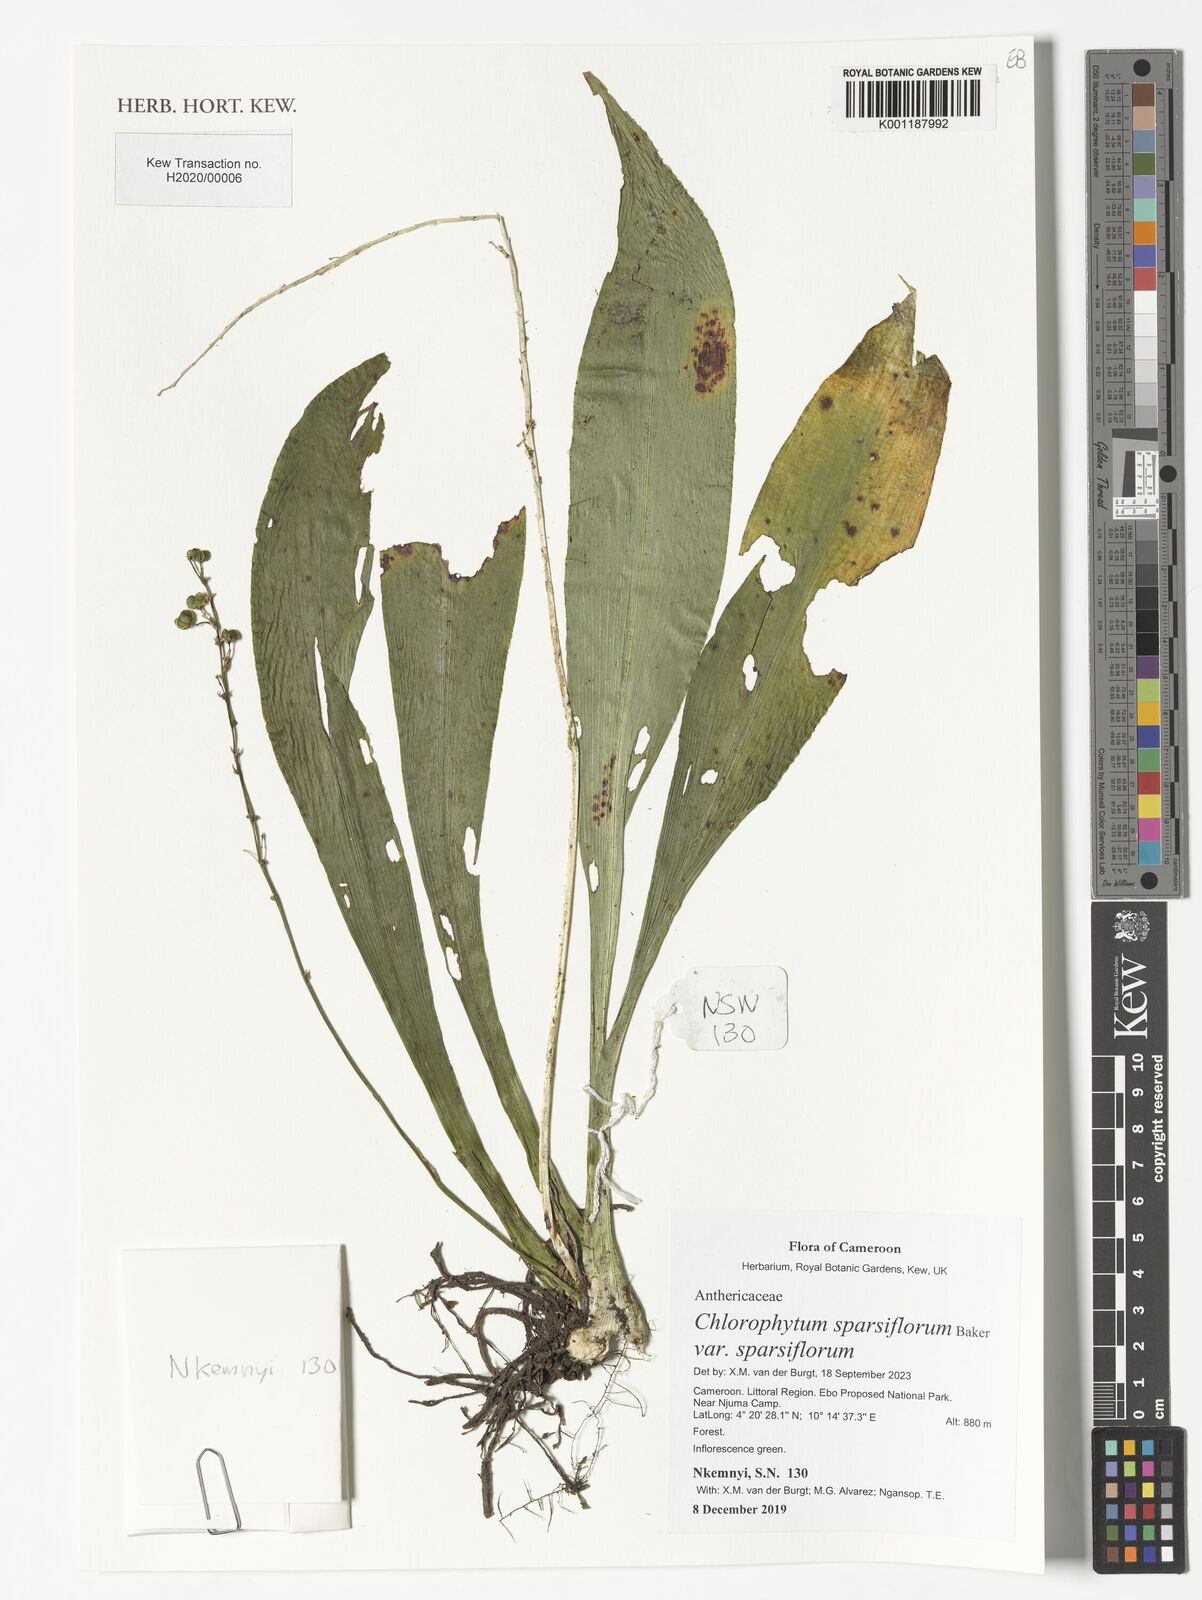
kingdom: Plantae
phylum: Tracheophyta
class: Liliopsida
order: Asparagales
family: Asparagaceae
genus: Chlorophytum
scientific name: Chlorophytum sparsiflorum
